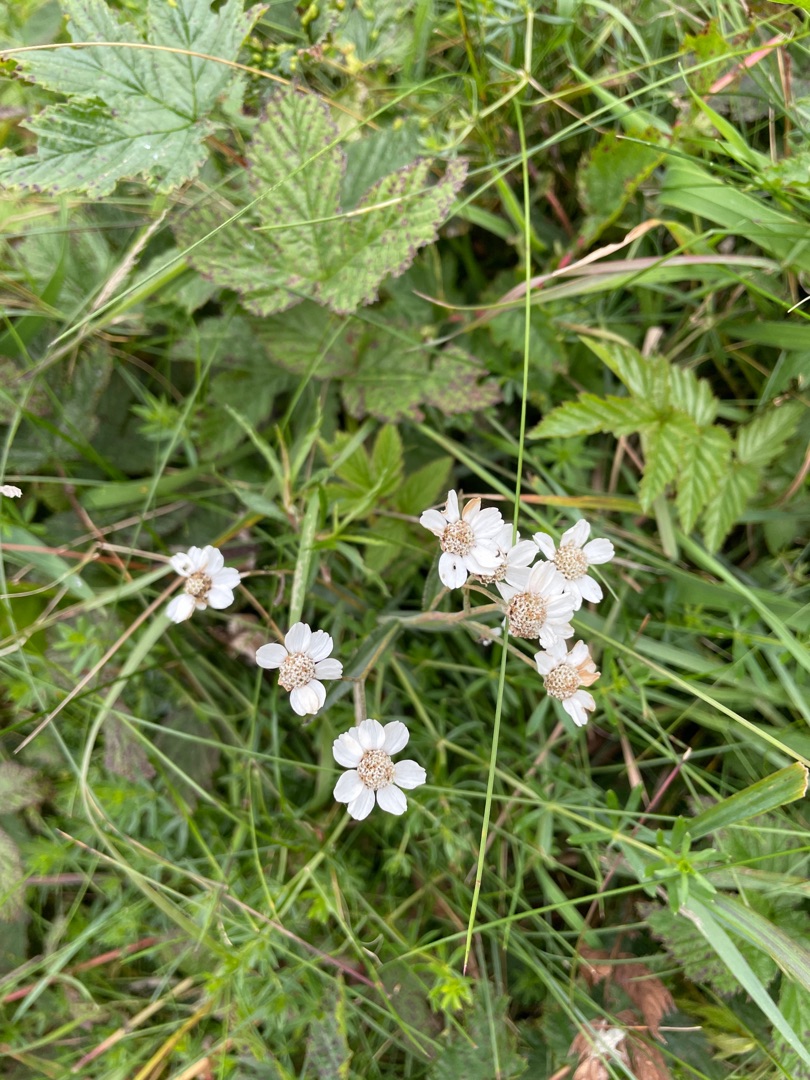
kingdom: Plantae
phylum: Tracheophyta
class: Magnoliopsida
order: Asterales
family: Asteraceae
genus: Achillea
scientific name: Achillea ptarmica
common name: Nyse-røllike
